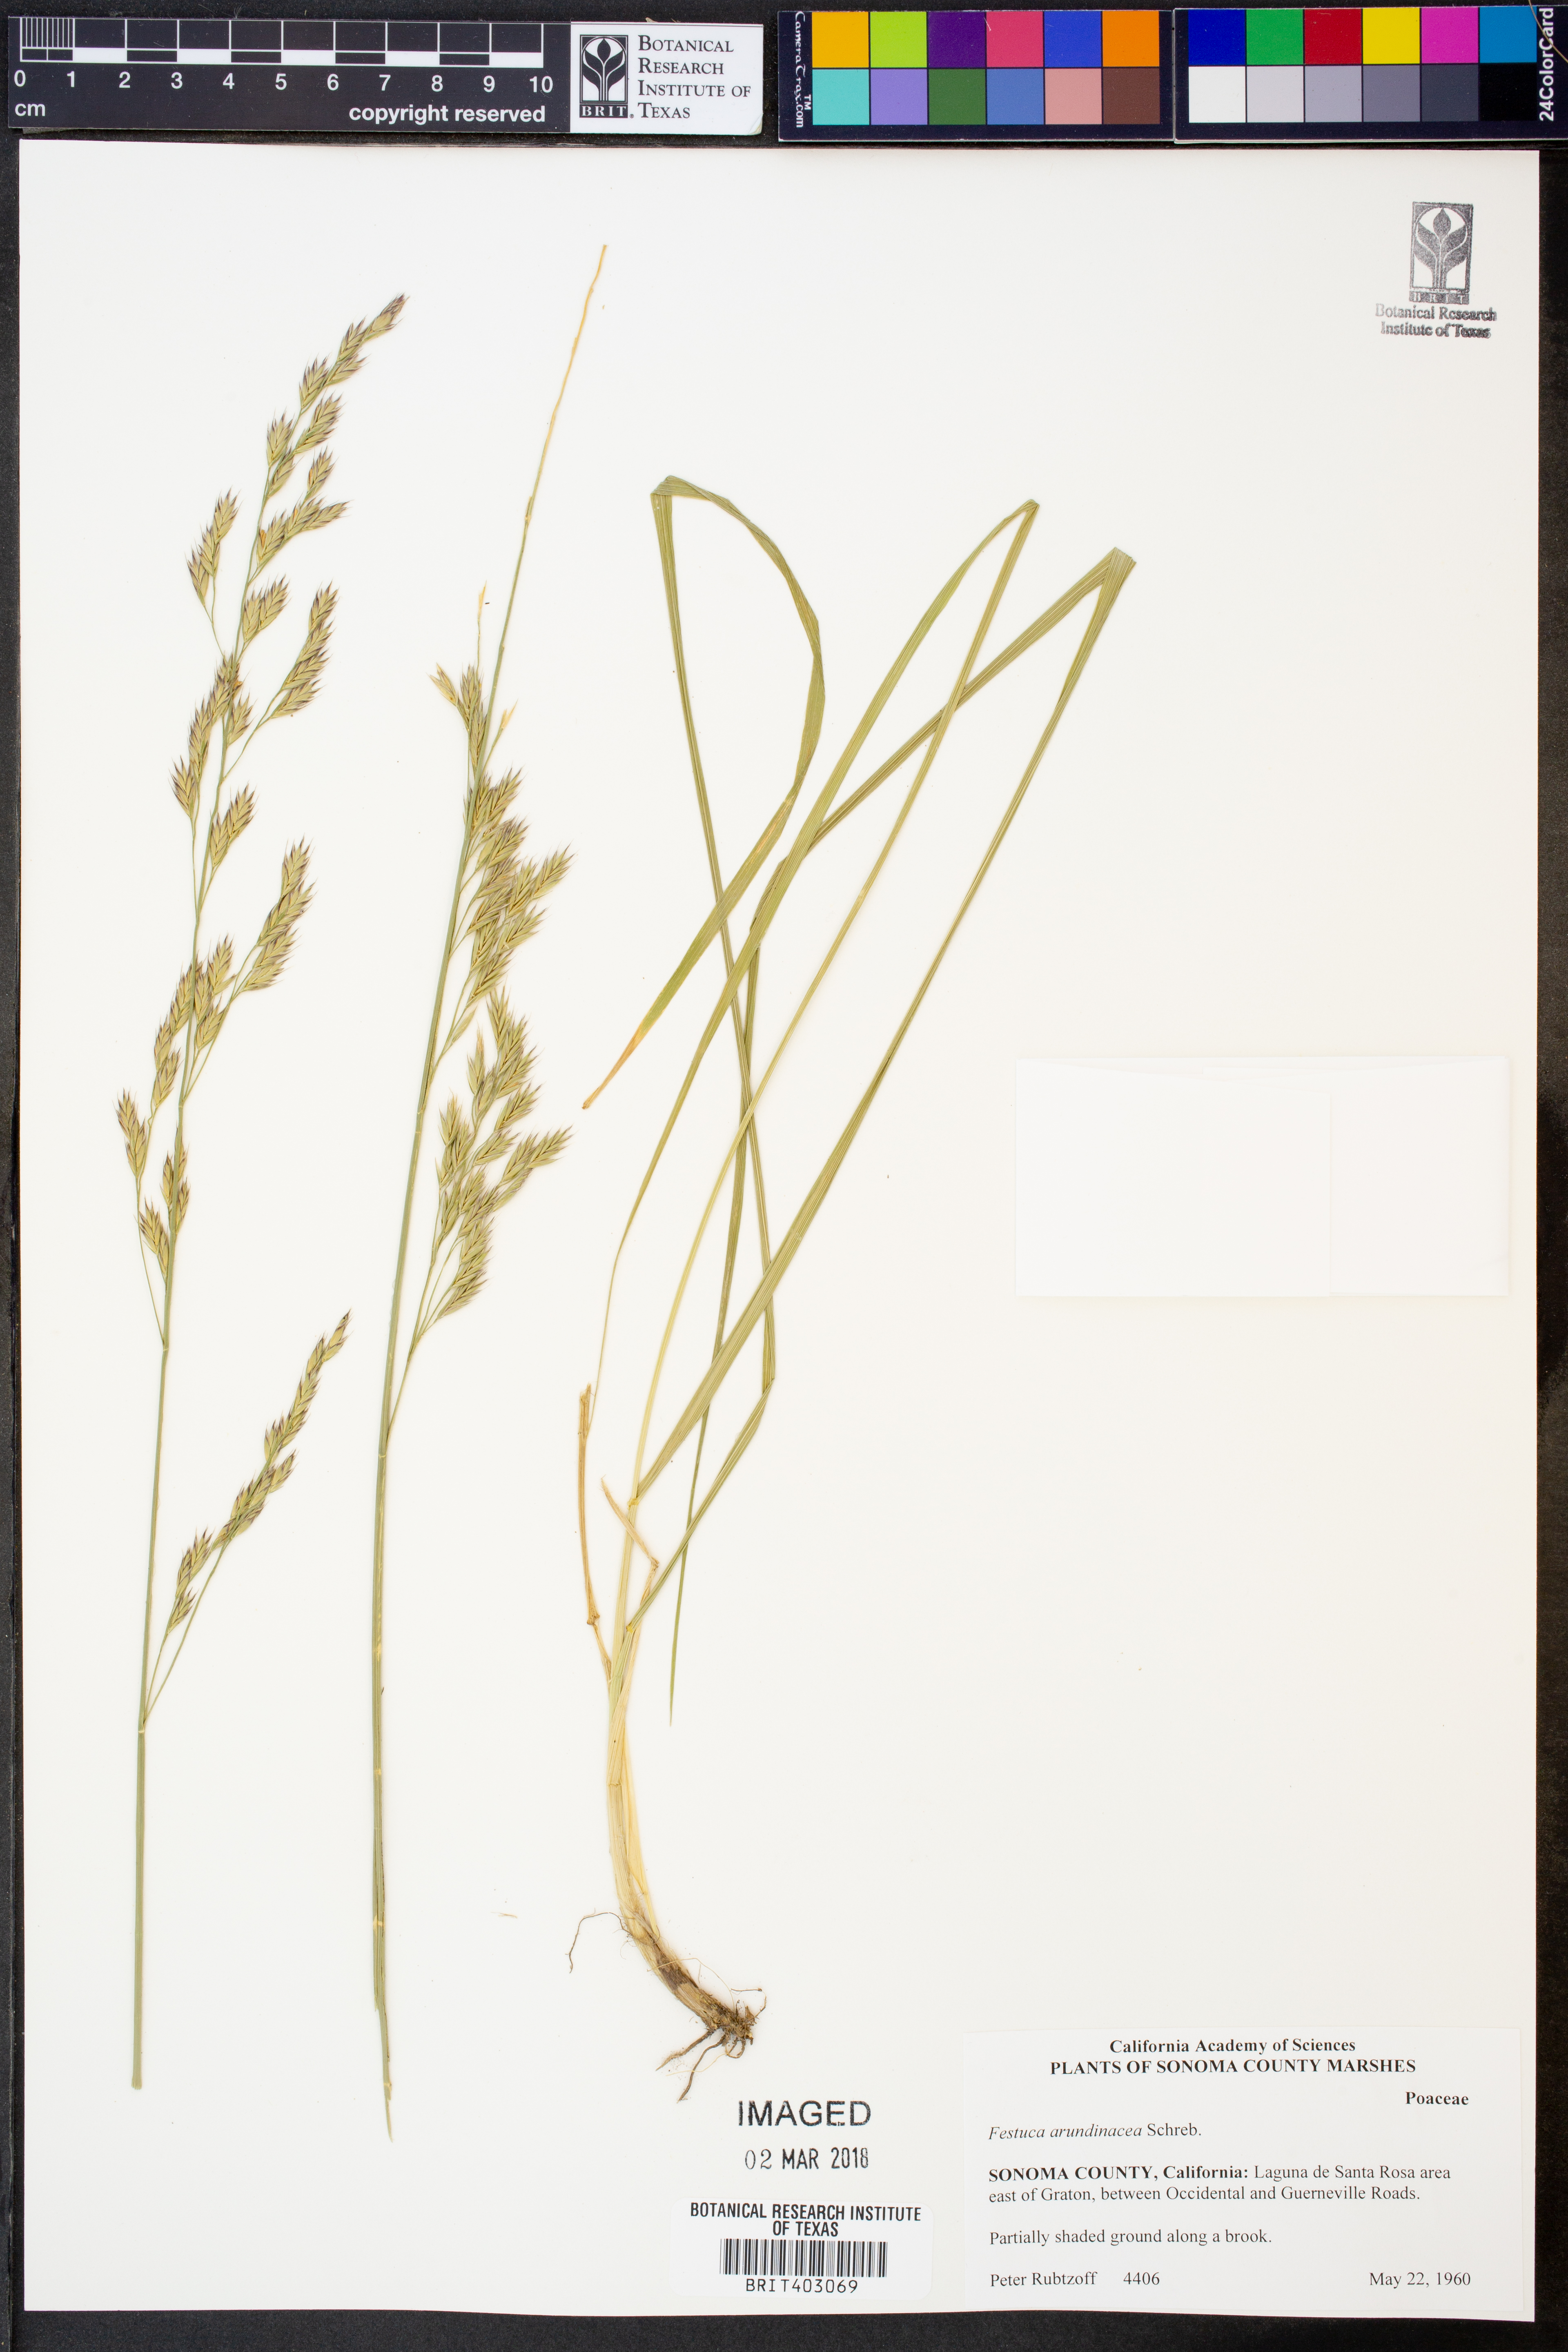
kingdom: Plantae
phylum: Tracheophyta
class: Liliopsida
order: Poales
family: Poaceae
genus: Lolium
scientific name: Lolium arundinaceum
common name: Reed fescue
